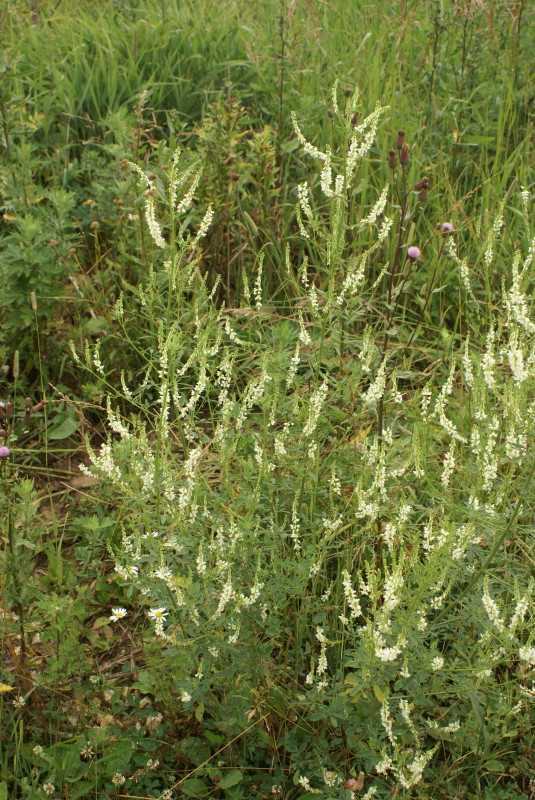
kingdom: Plantae
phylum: Tracheophyta
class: Magnoliopsida
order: Fabales
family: Fabaceae
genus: Melilotus
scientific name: Melilotus albus
